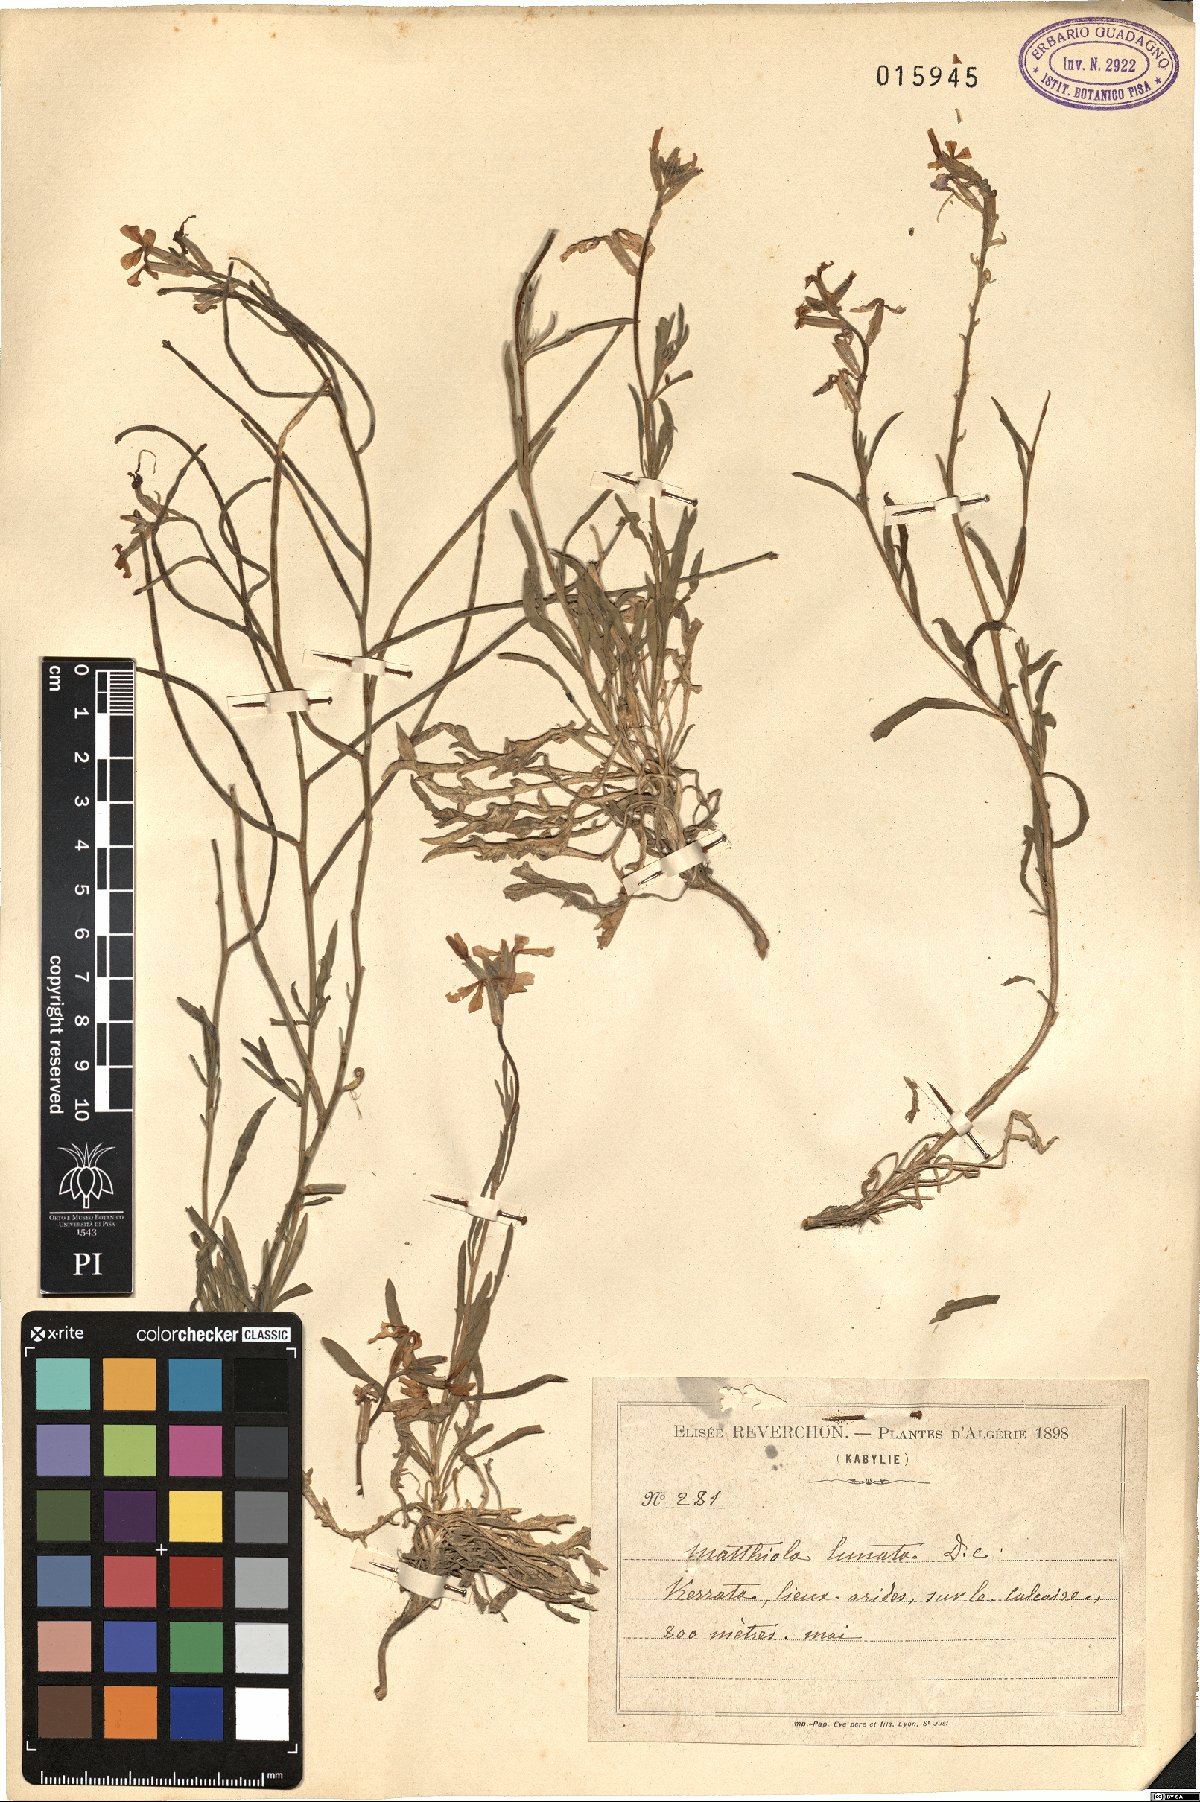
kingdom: Plantae
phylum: Tracheophyta
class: Magnoliopsida
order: Brassicales
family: Brassicaceae
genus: Matthiola
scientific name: Matthiola lunata
